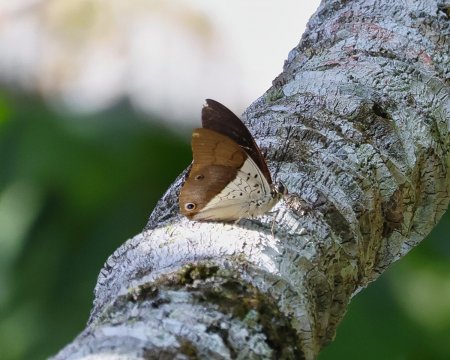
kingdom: Animalia
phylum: Arthropoda
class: Insecta
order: Lepidoptera
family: Nymphalidae
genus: Prepona
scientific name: Prepona dexamenus
